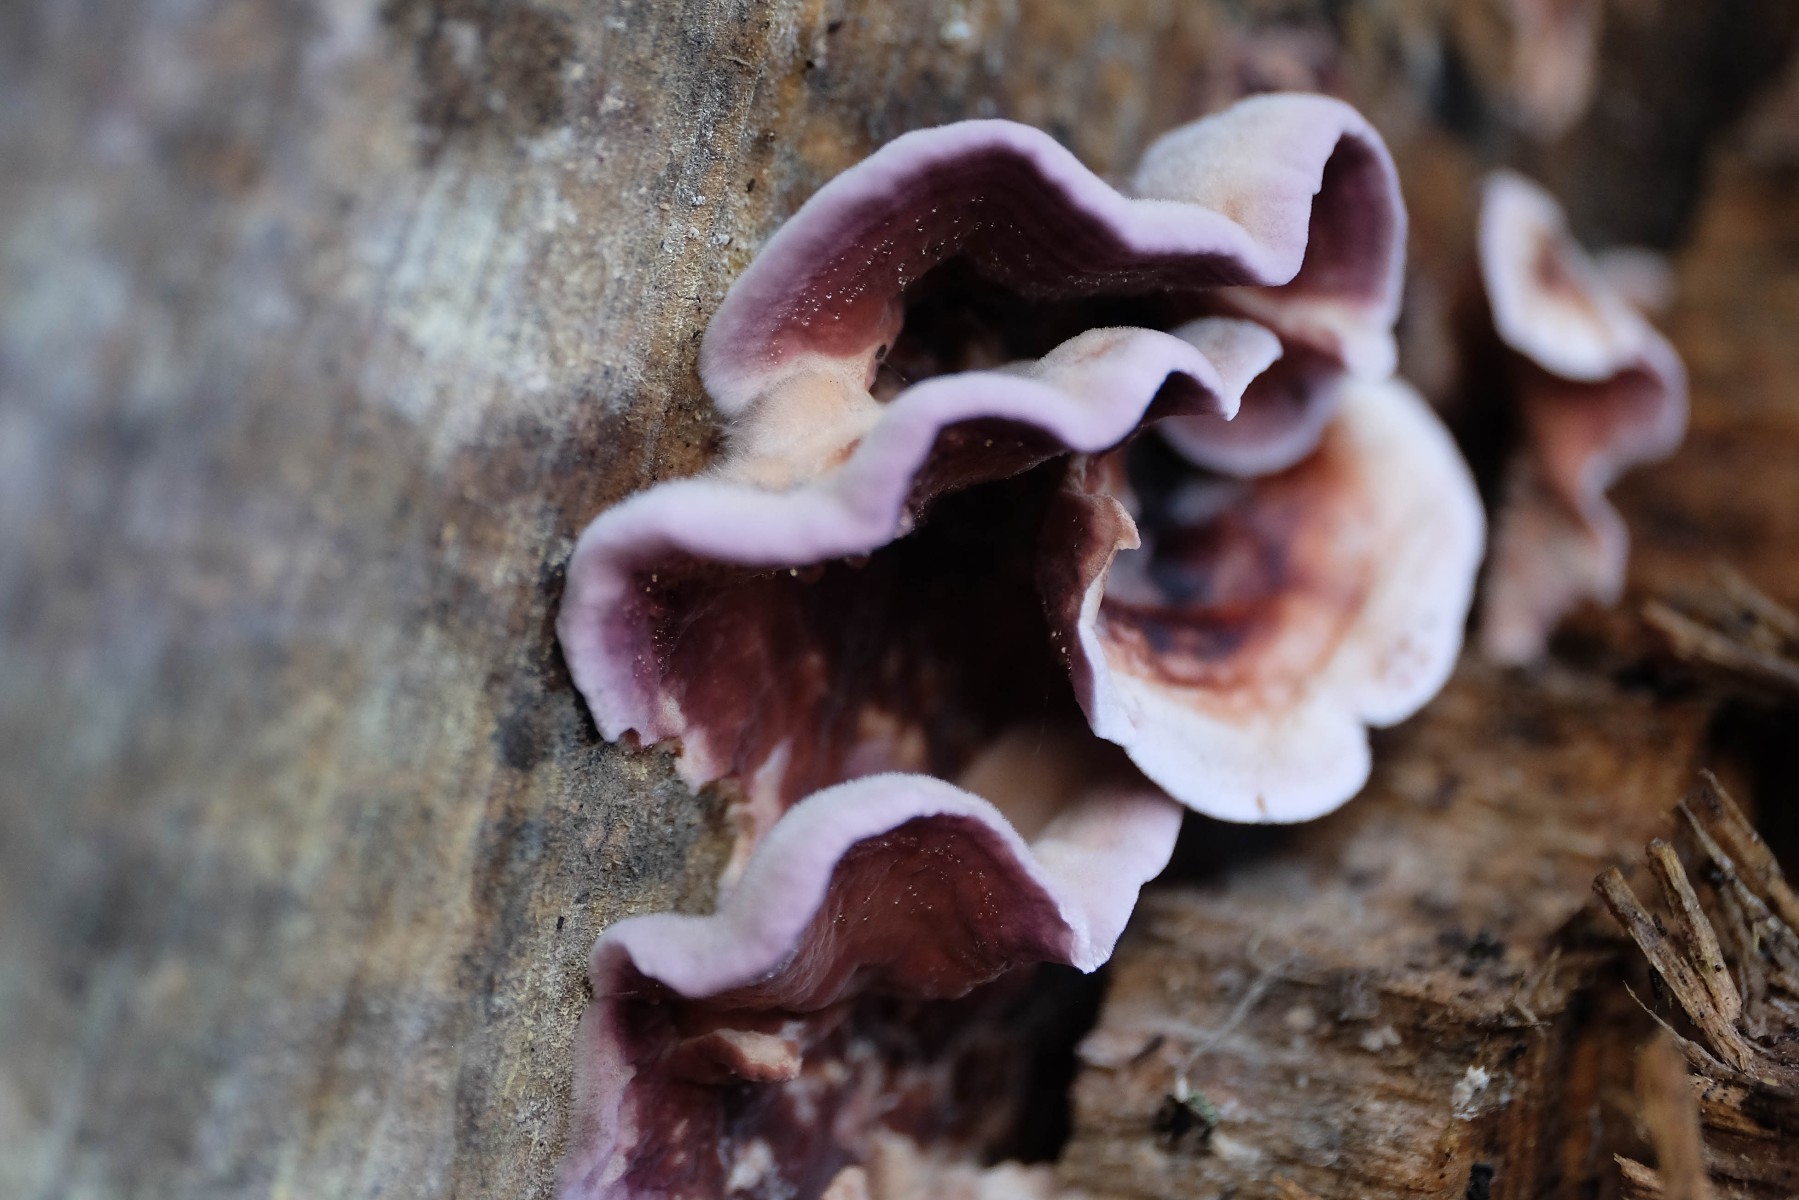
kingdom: Fungi
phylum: Basidiomycota
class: Agaricomycetes
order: Agaricales
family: Cyphellaceae
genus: Chondrostereum
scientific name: Chondrostereum purpureum
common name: purpurlædersvamp
